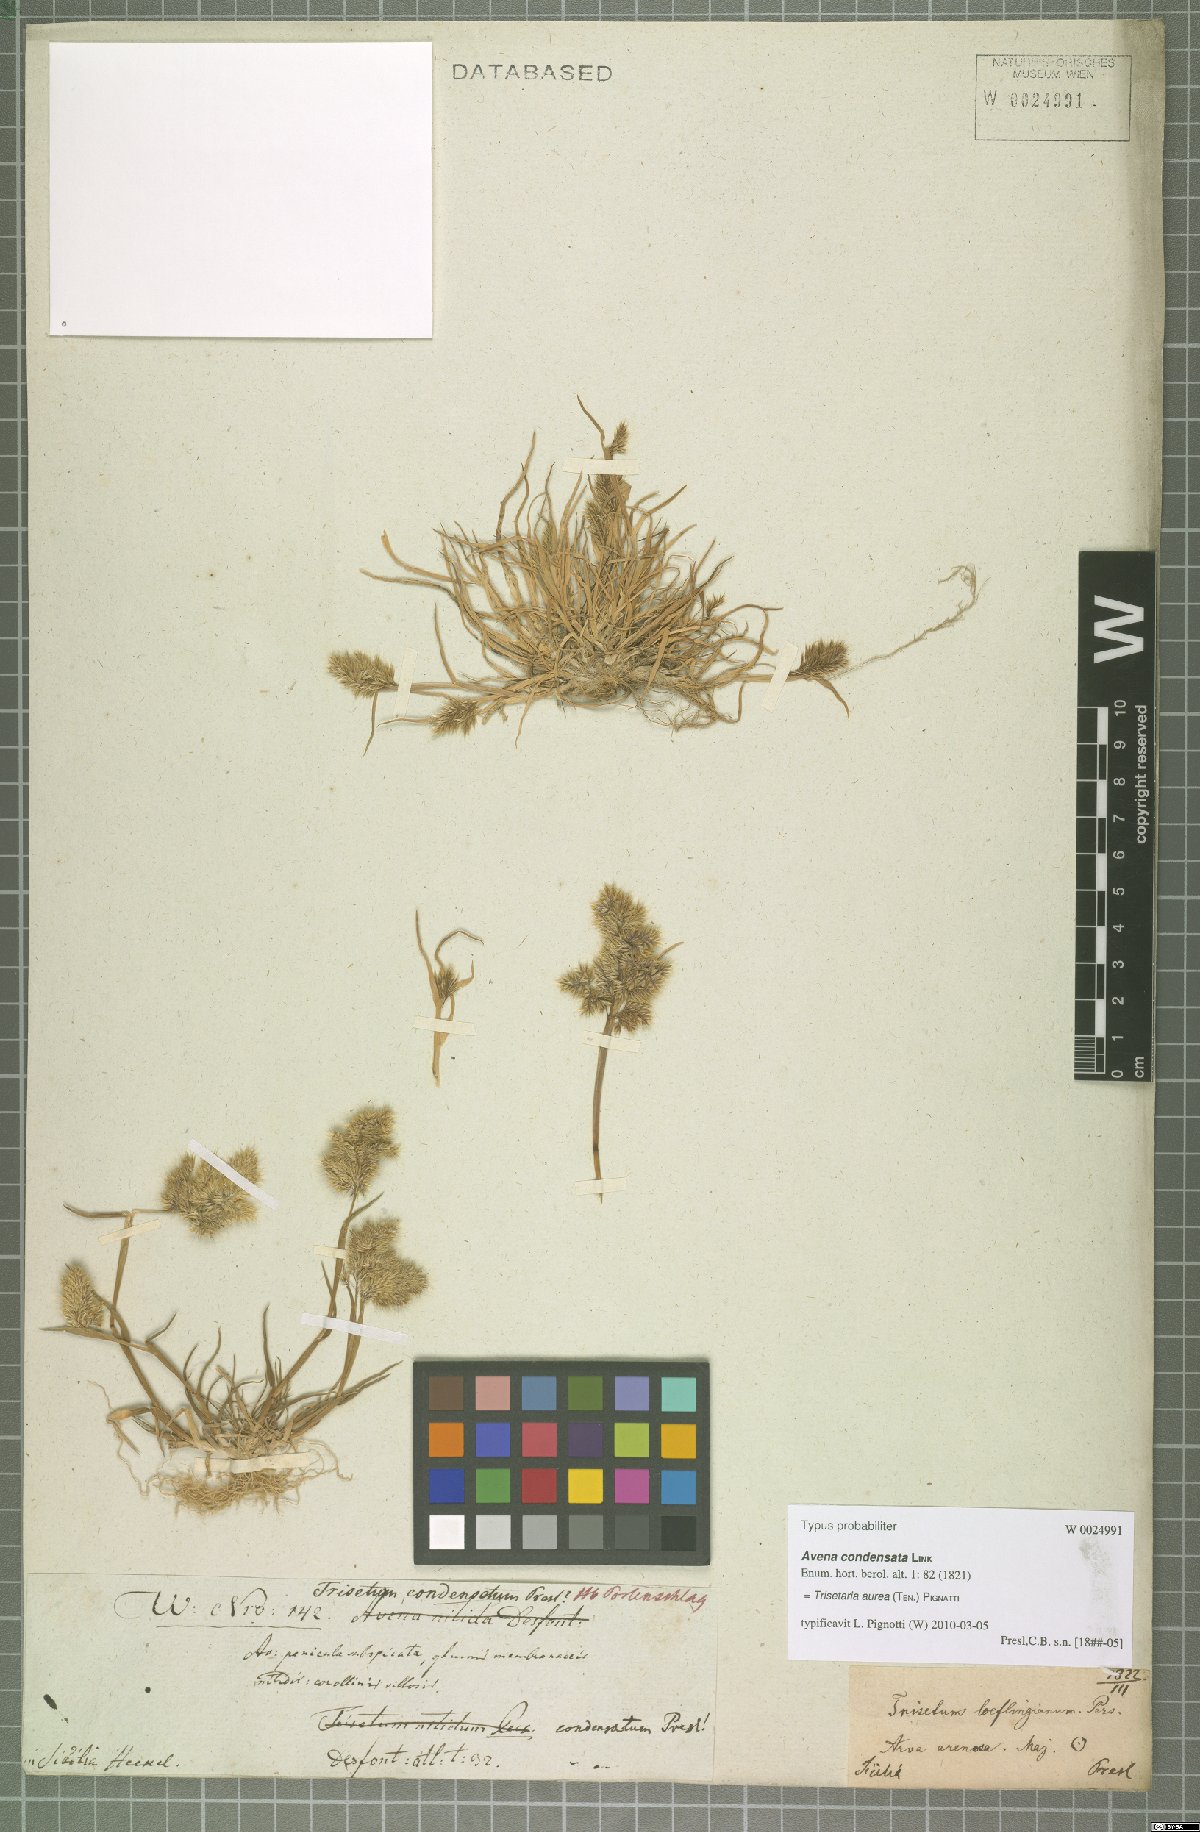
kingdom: Plantae
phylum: Tracheophyta
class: Liliopsida
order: Poales
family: Poaceae
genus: Trisetaria
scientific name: Trisetaria aurea
